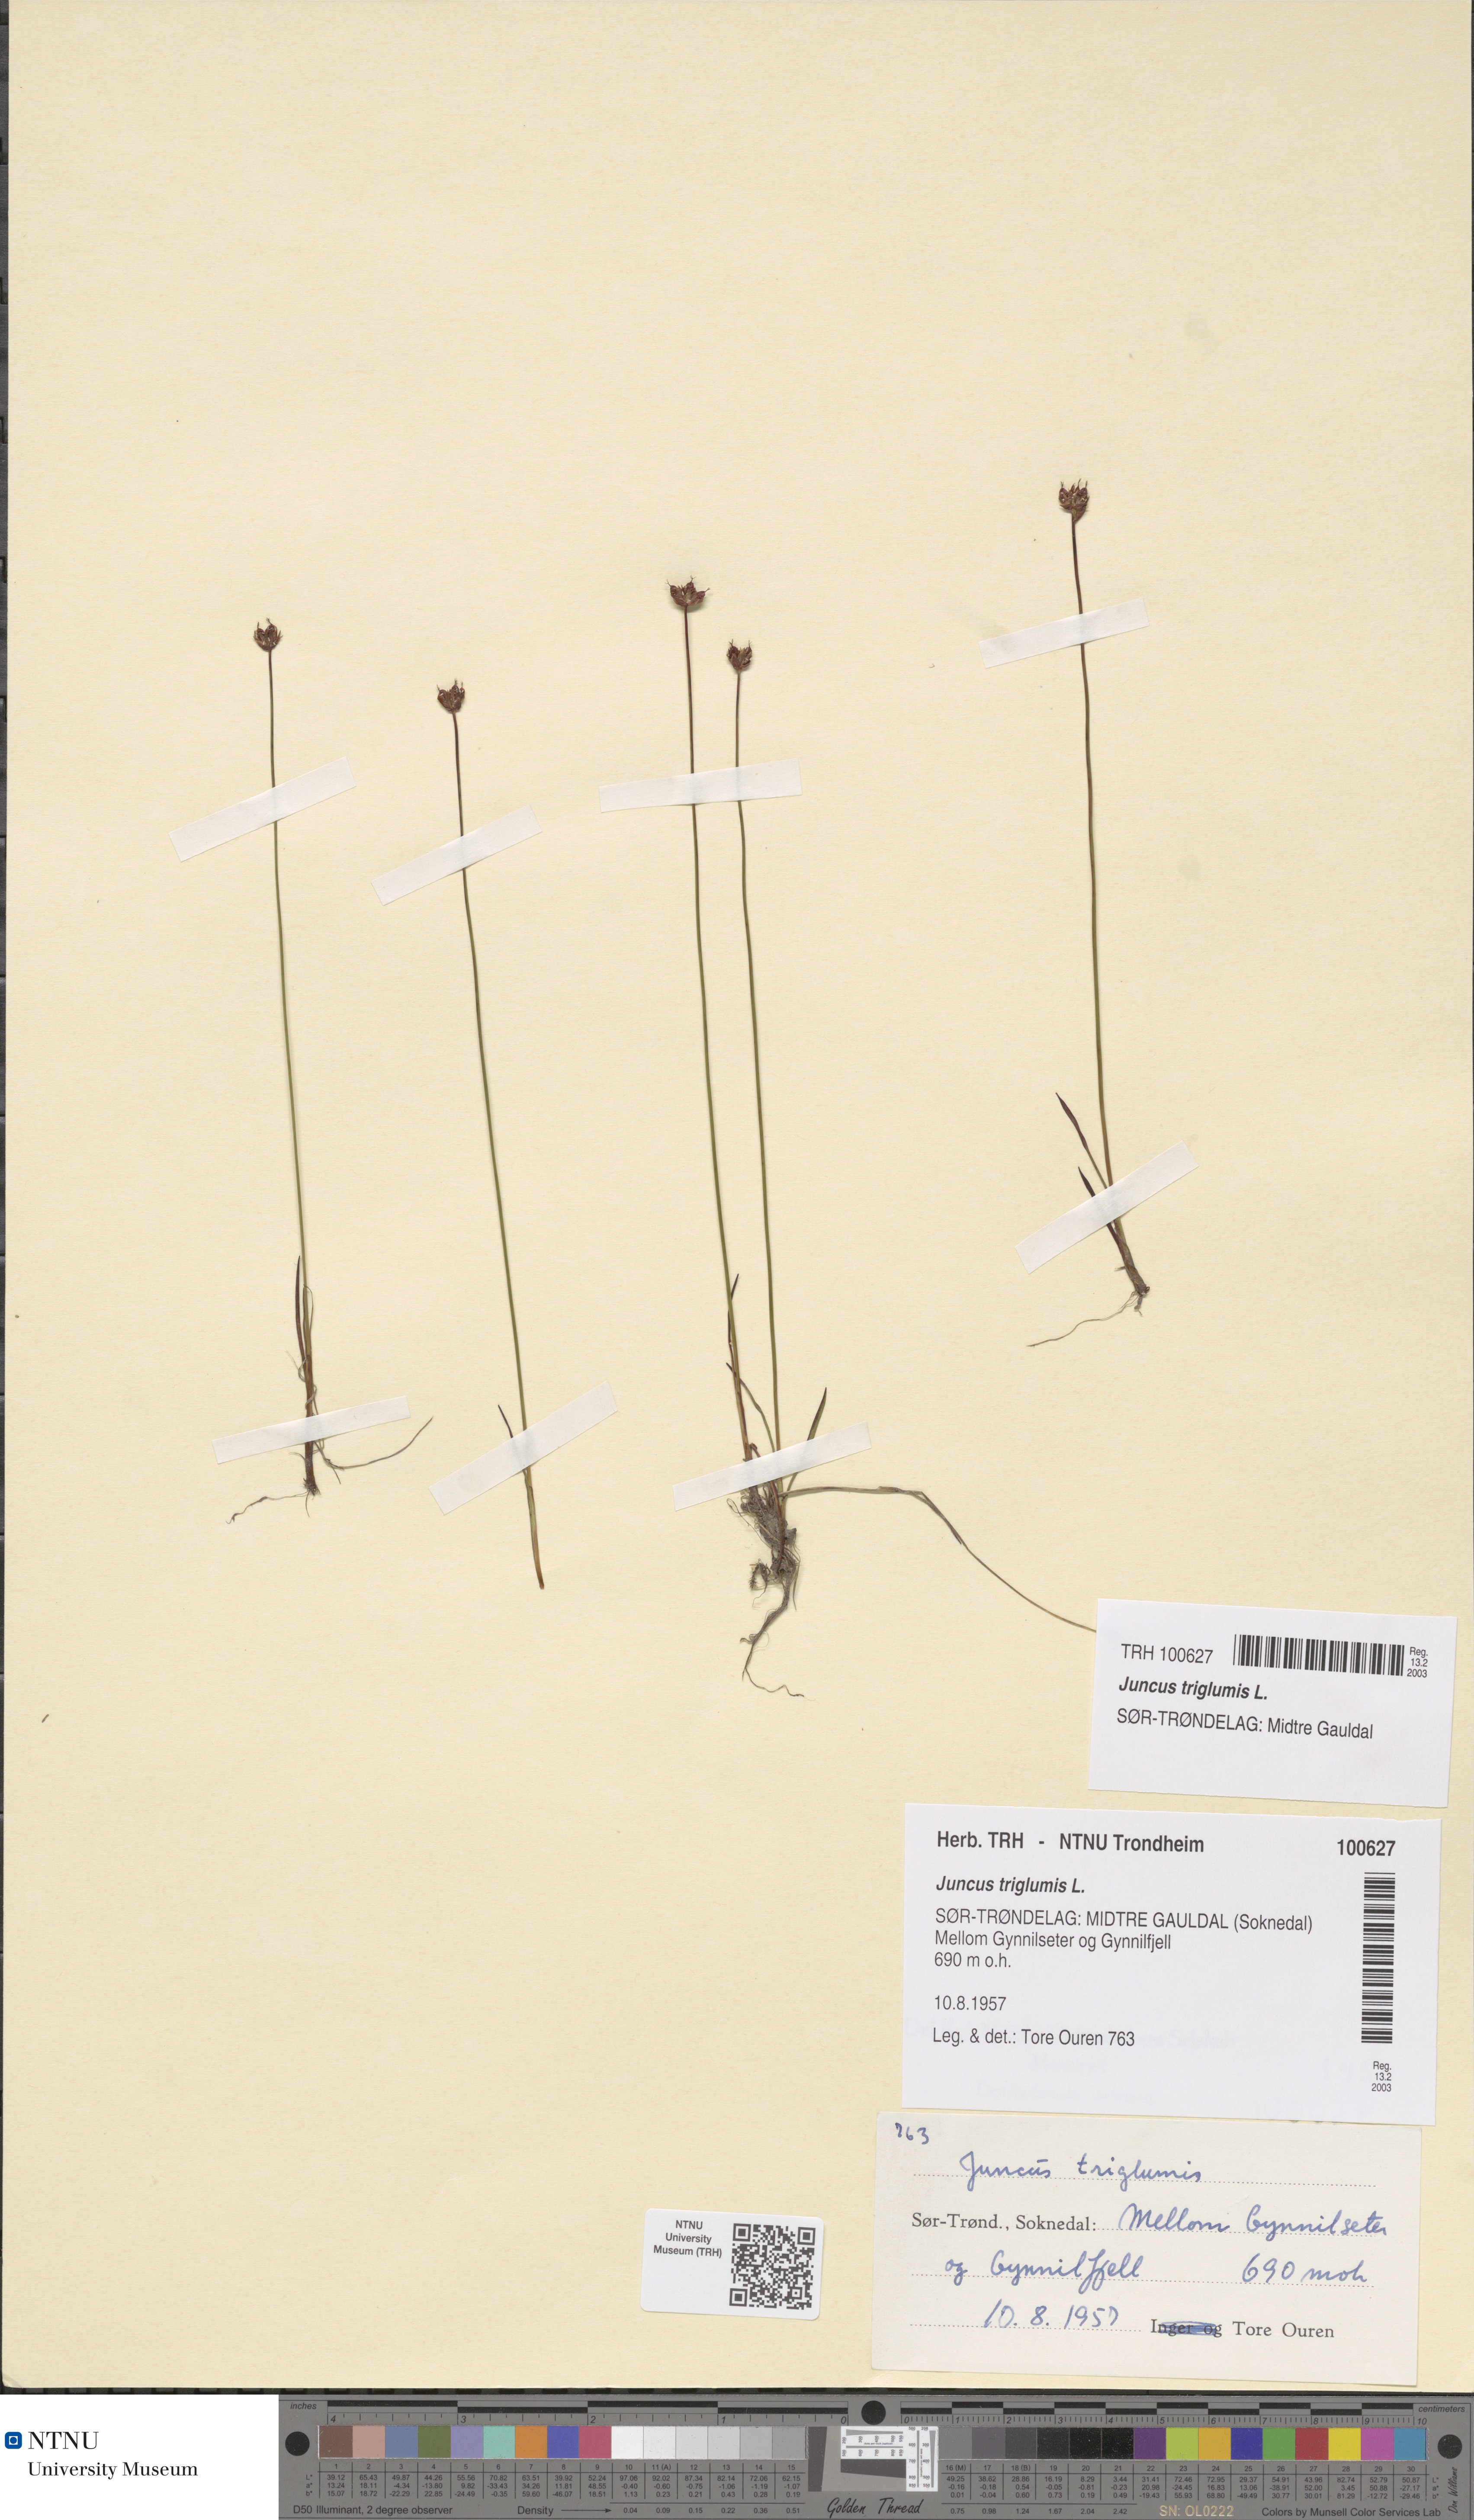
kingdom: Plantae
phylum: Tracheophyta
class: Liliopsida
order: Poales
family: Juncaceae
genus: Juncus
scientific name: Juncus triglumis
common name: Three-flowered rush
